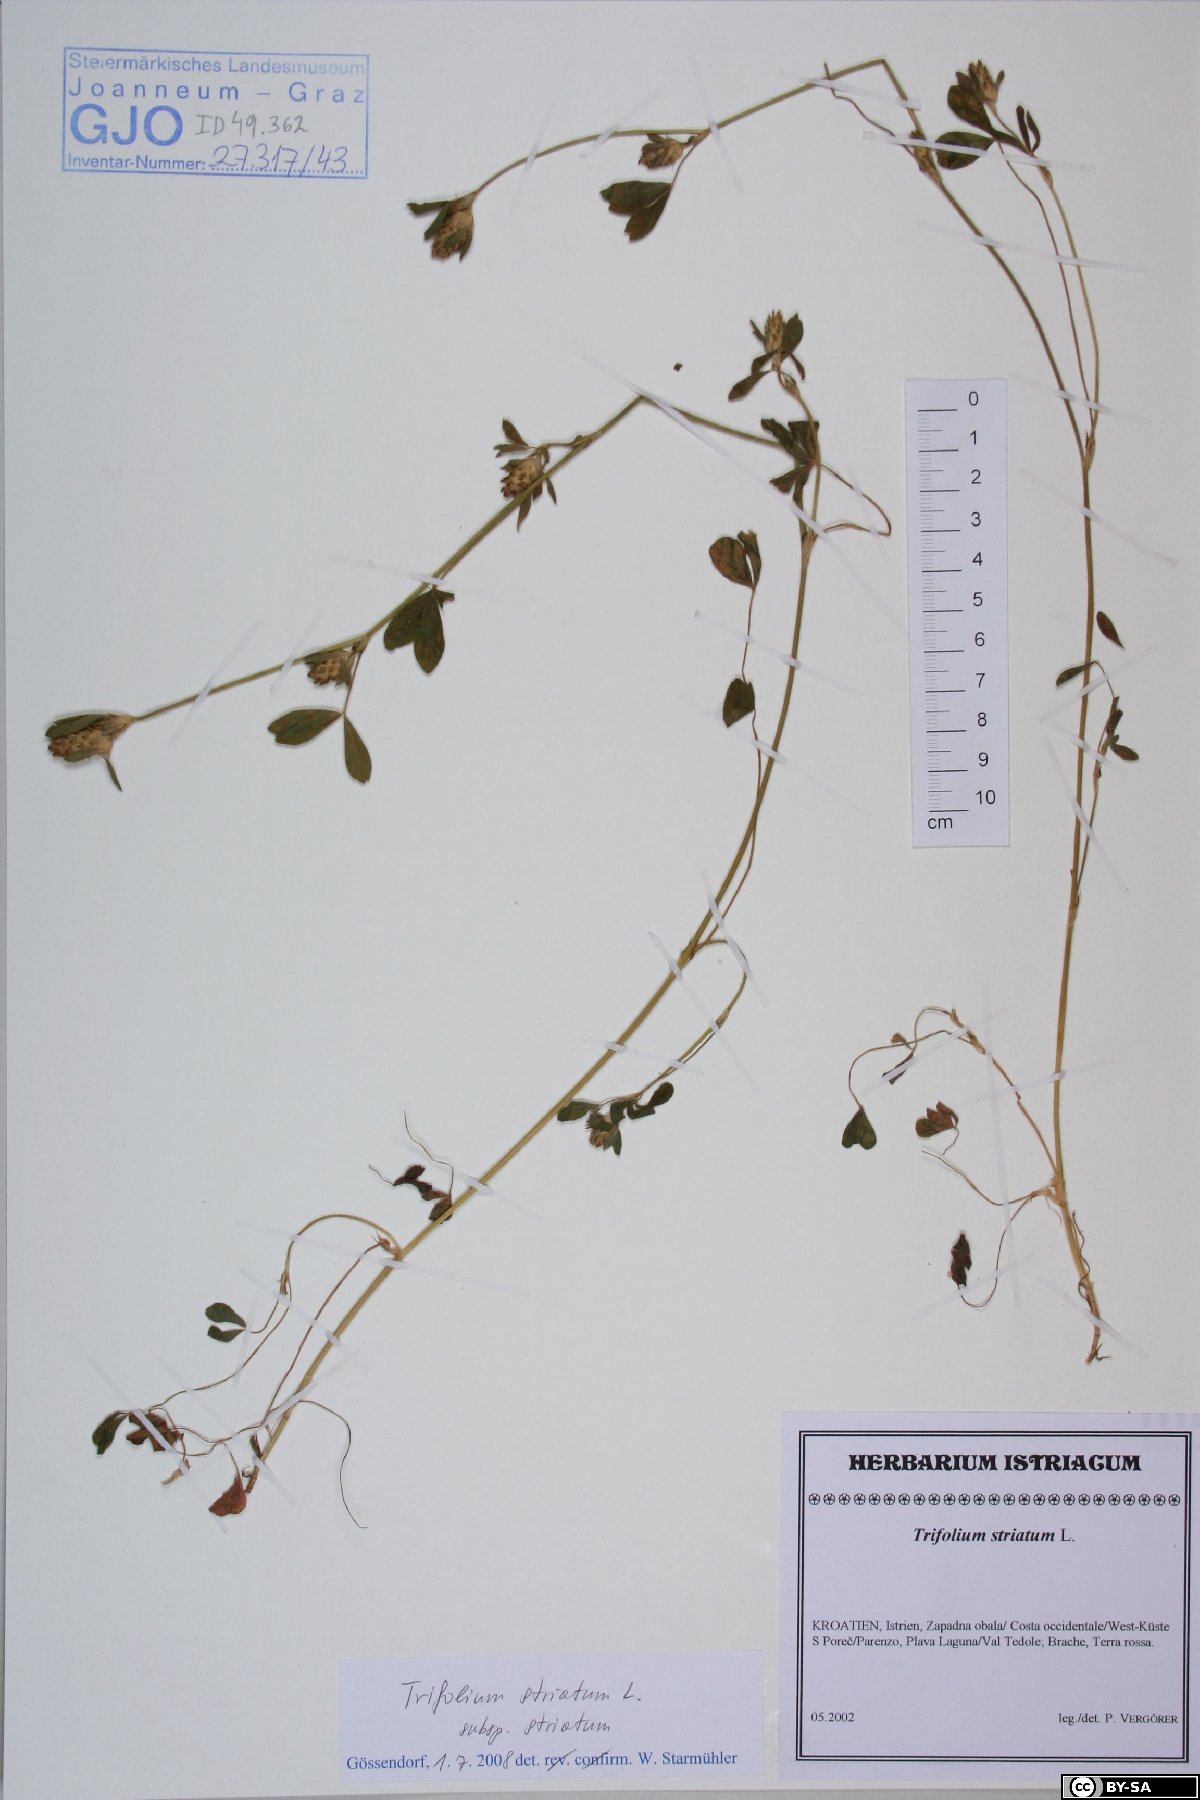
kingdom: Plantae
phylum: Tracheophyta
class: Magnoliopsida
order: Fabales
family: Fabaceae
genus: Trifolium
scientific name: Trifolium striatum
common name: Knotted clover
